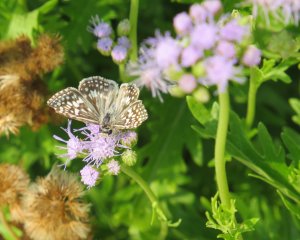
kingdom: Animalia
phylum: Arthropoda
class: Insecta
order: Lepidoptera
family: Hesperiidae
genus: Pyrgus
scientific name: Pyrgus oileus
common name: Tropical Checkered-Skipper
